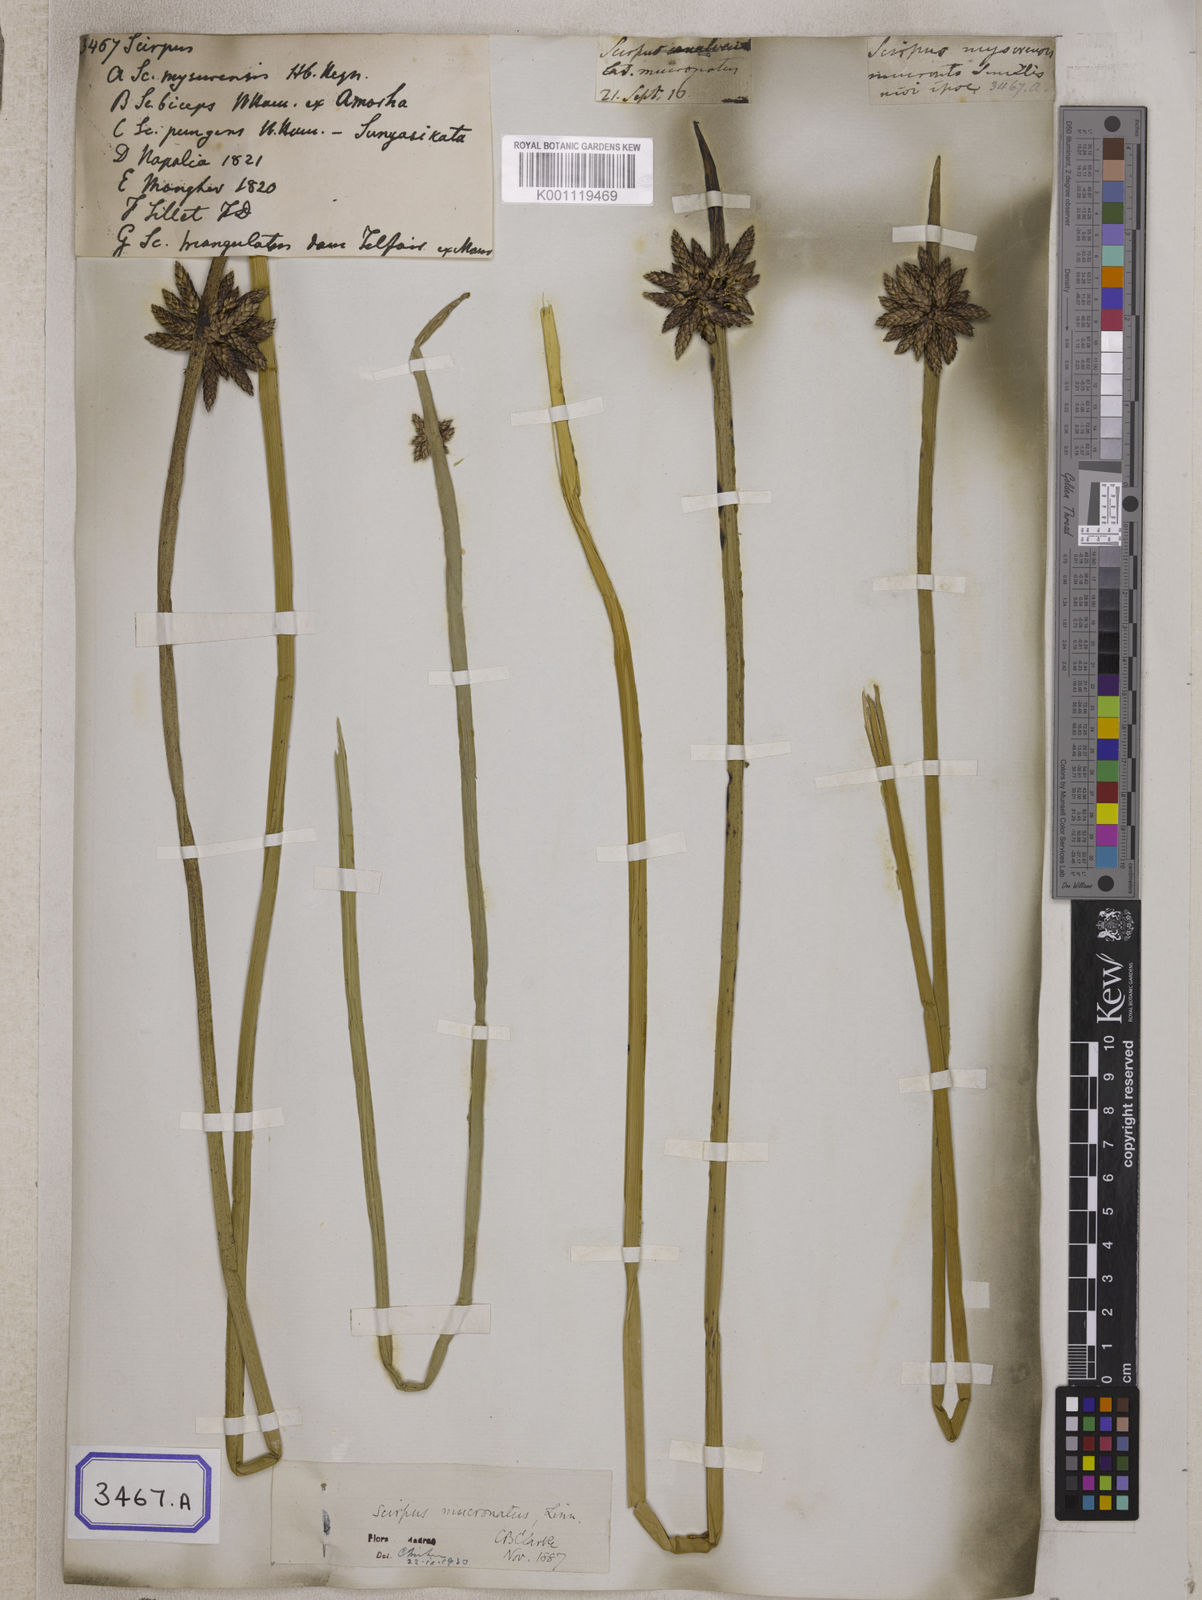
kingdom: Plantae
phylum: Tracheophyta
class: Liliopsida
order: Poales
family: Cyperaceae
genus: Scirpus
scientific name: Scirpus
